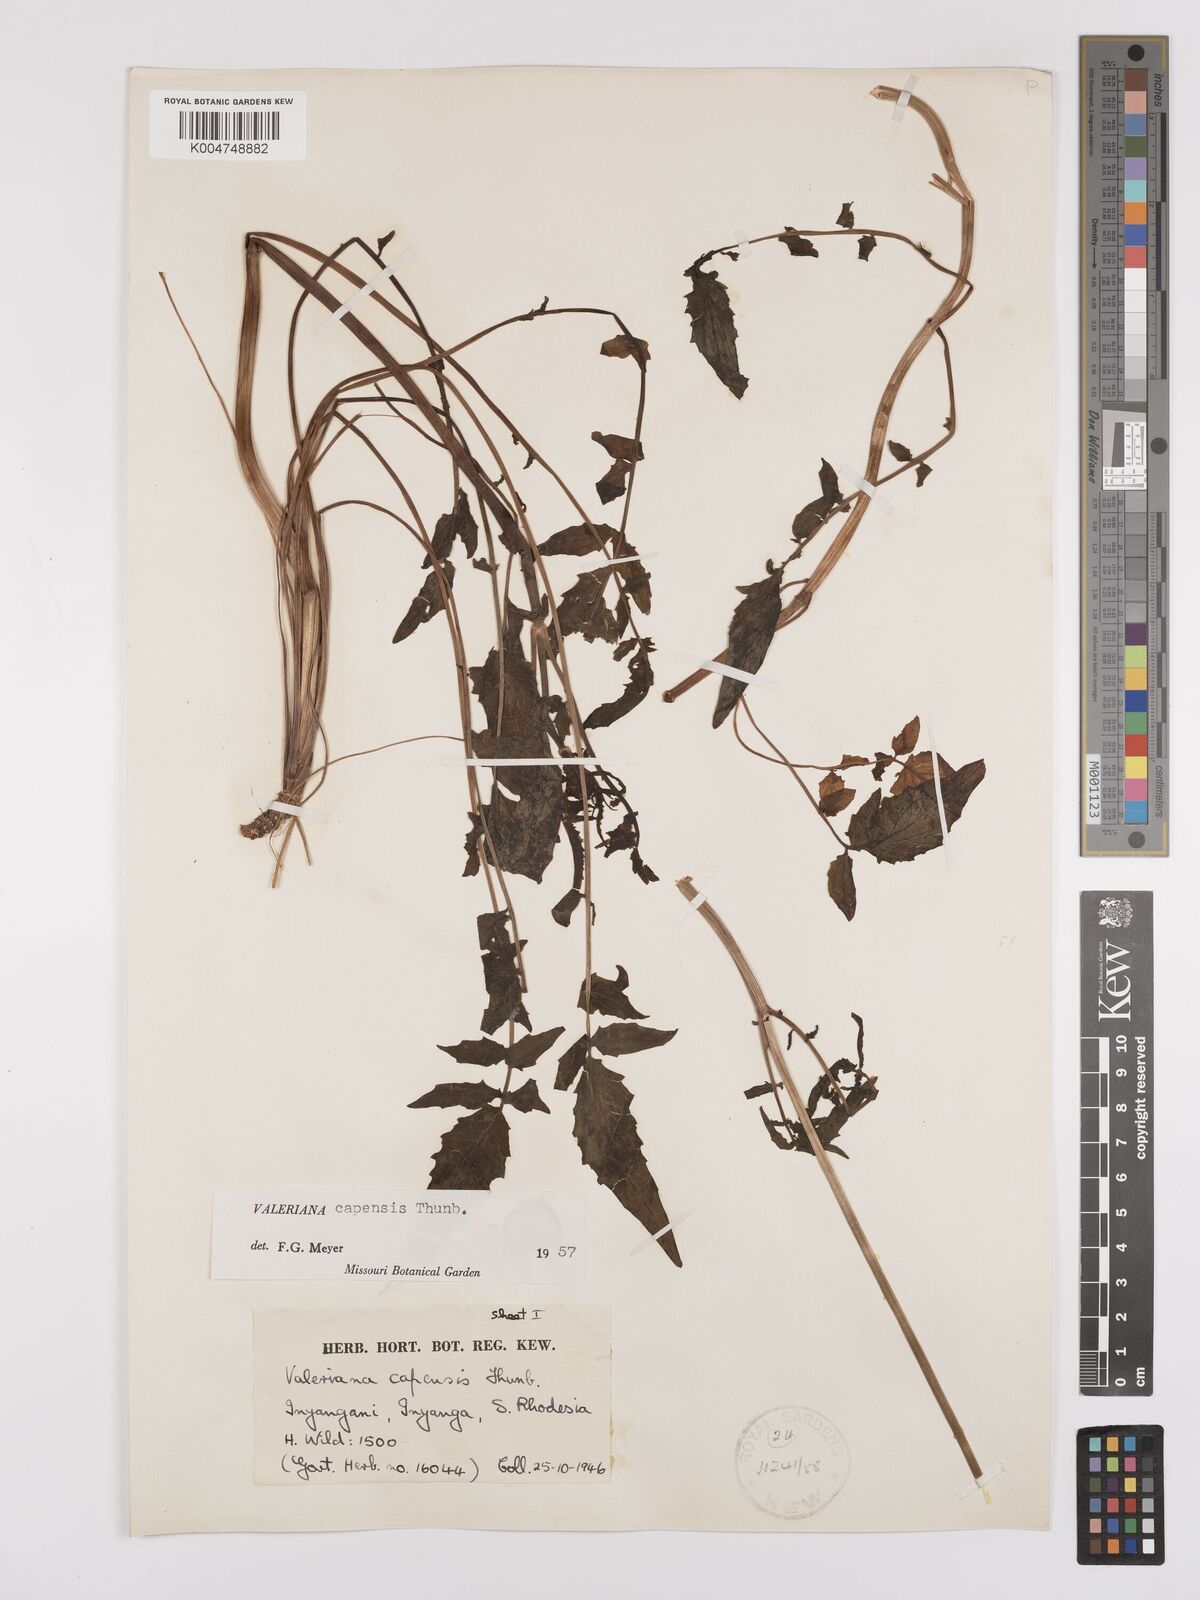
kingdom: Plantae
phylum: Tracheophyta
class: Magnoliopsida
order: Dipsacales
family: Caprifoliaceae
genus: Valeriana
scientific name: Valeriana capensis
